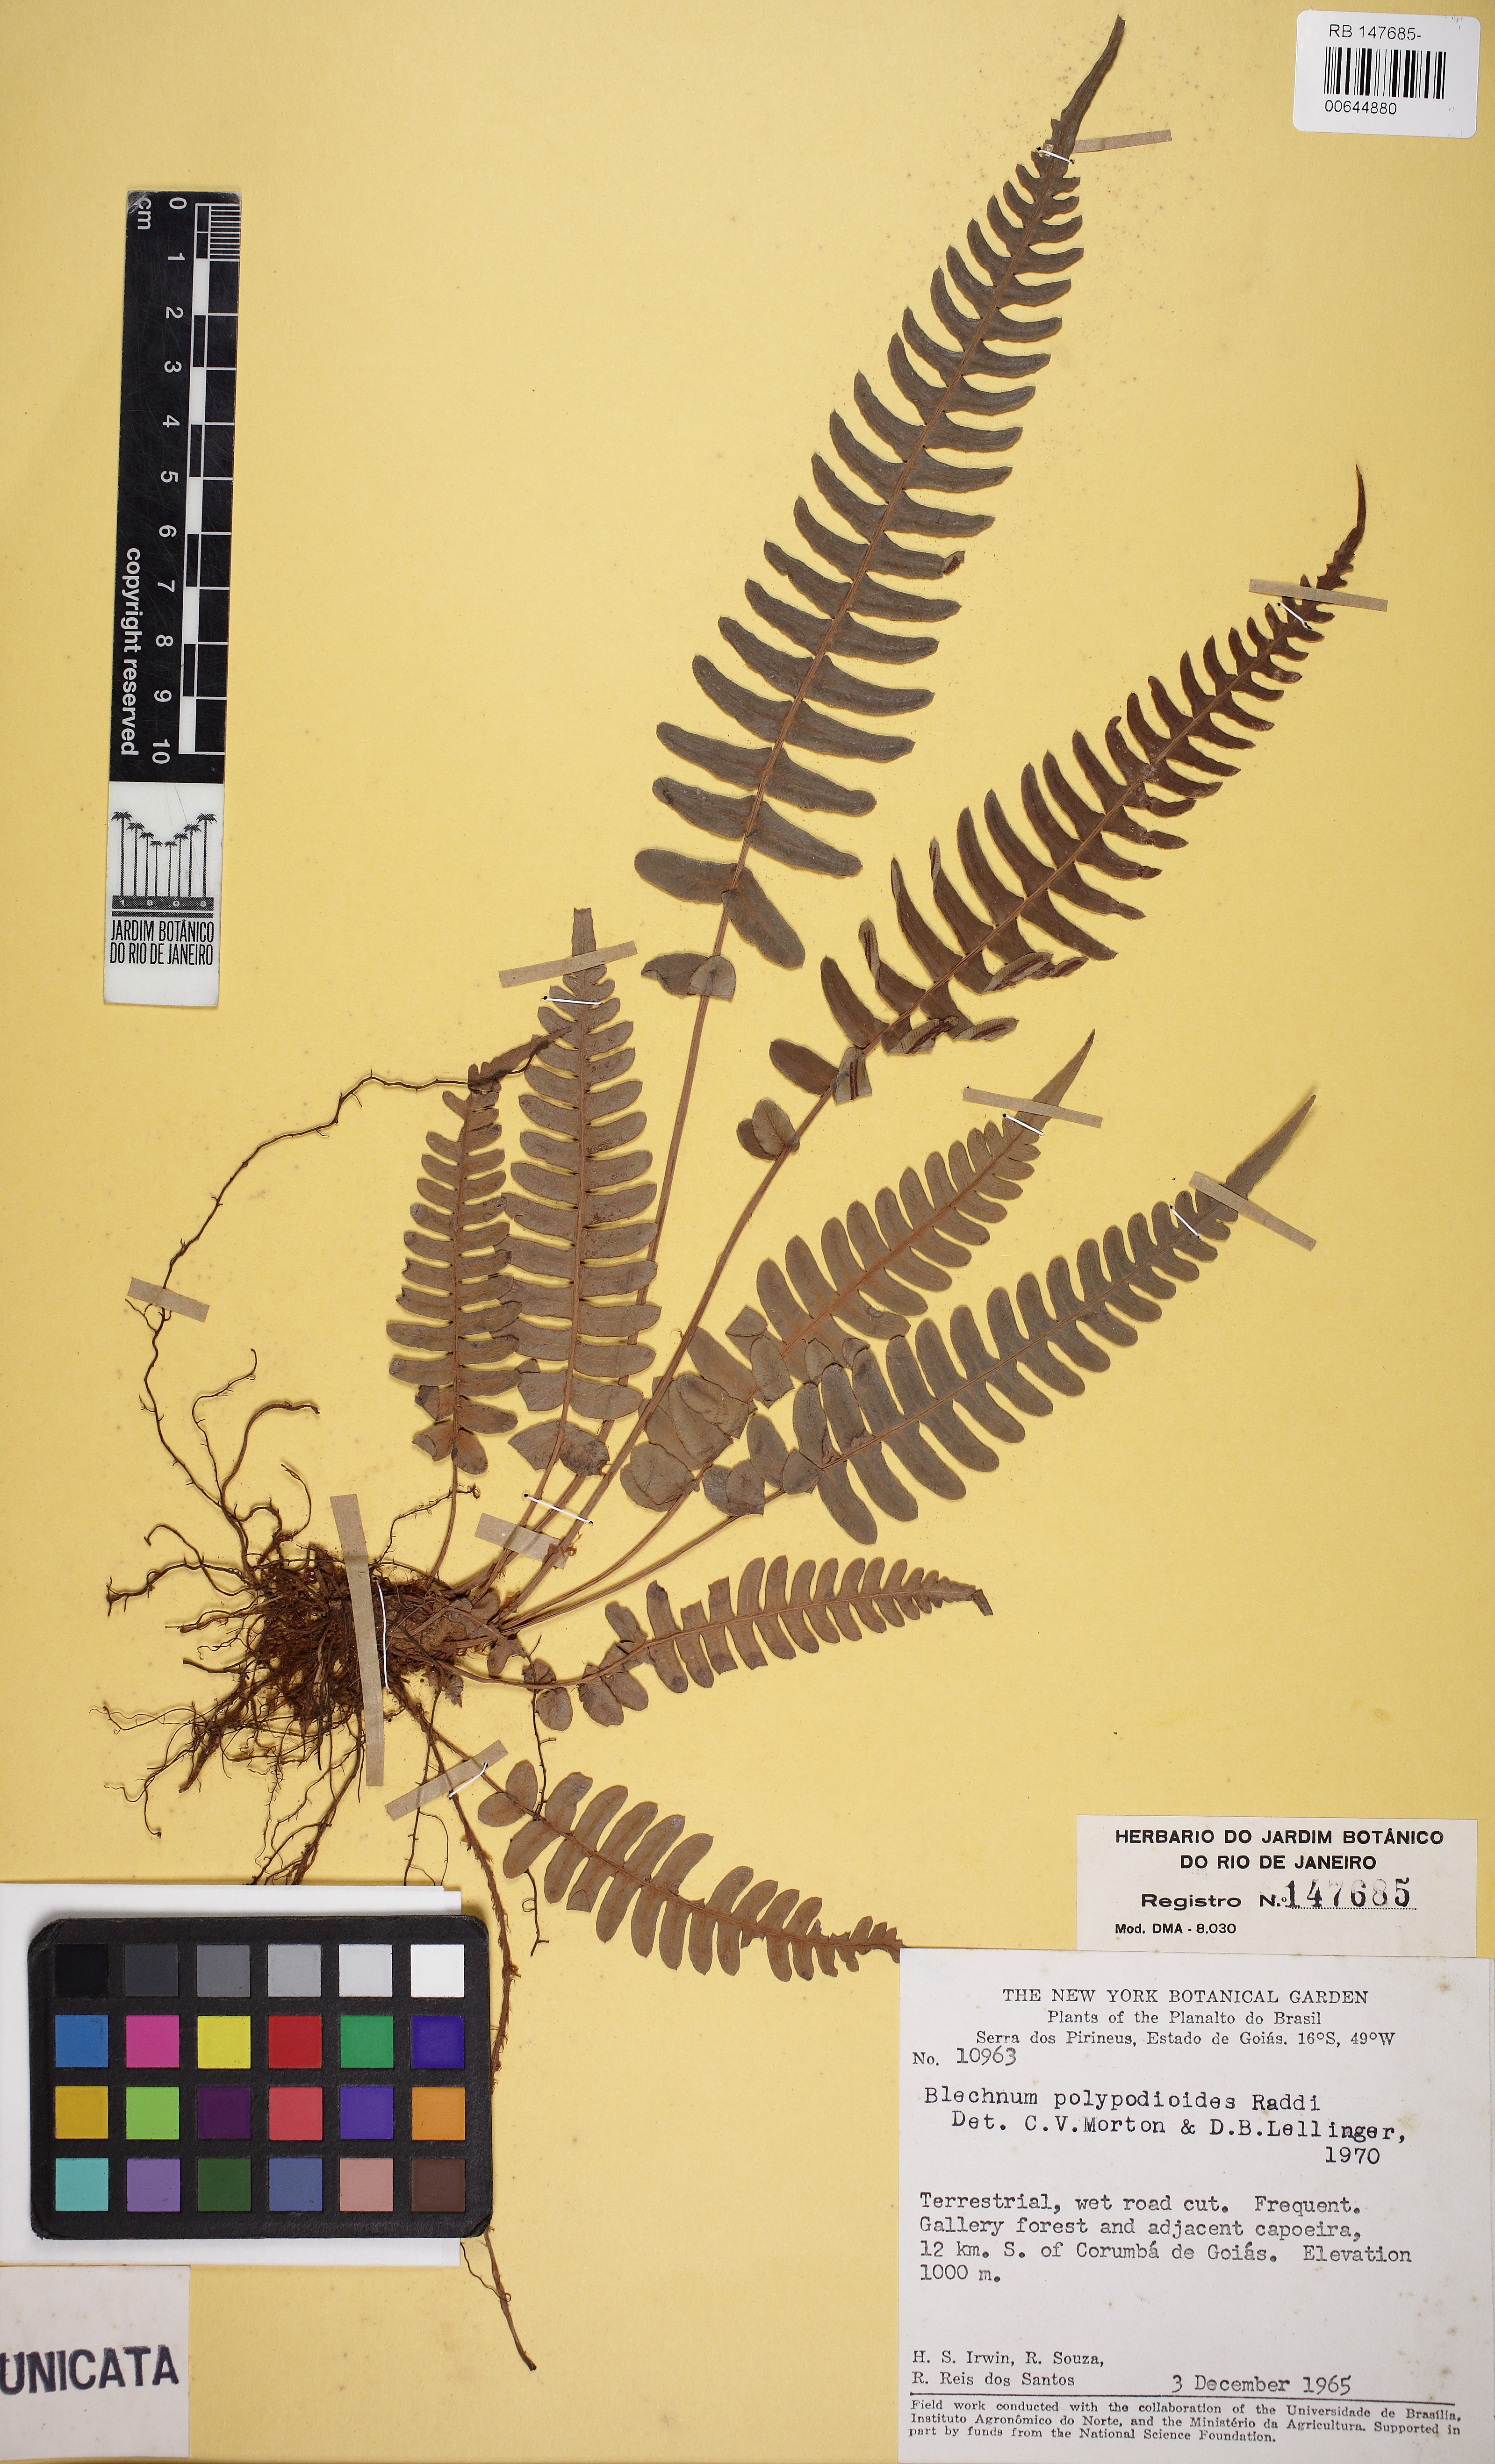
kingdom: Plantae
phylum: Tracheophyta
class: Polypodiopsida
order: Polypodiales
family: Blechnaceae
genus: Blechnum
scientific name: Blechnum polypodioides
